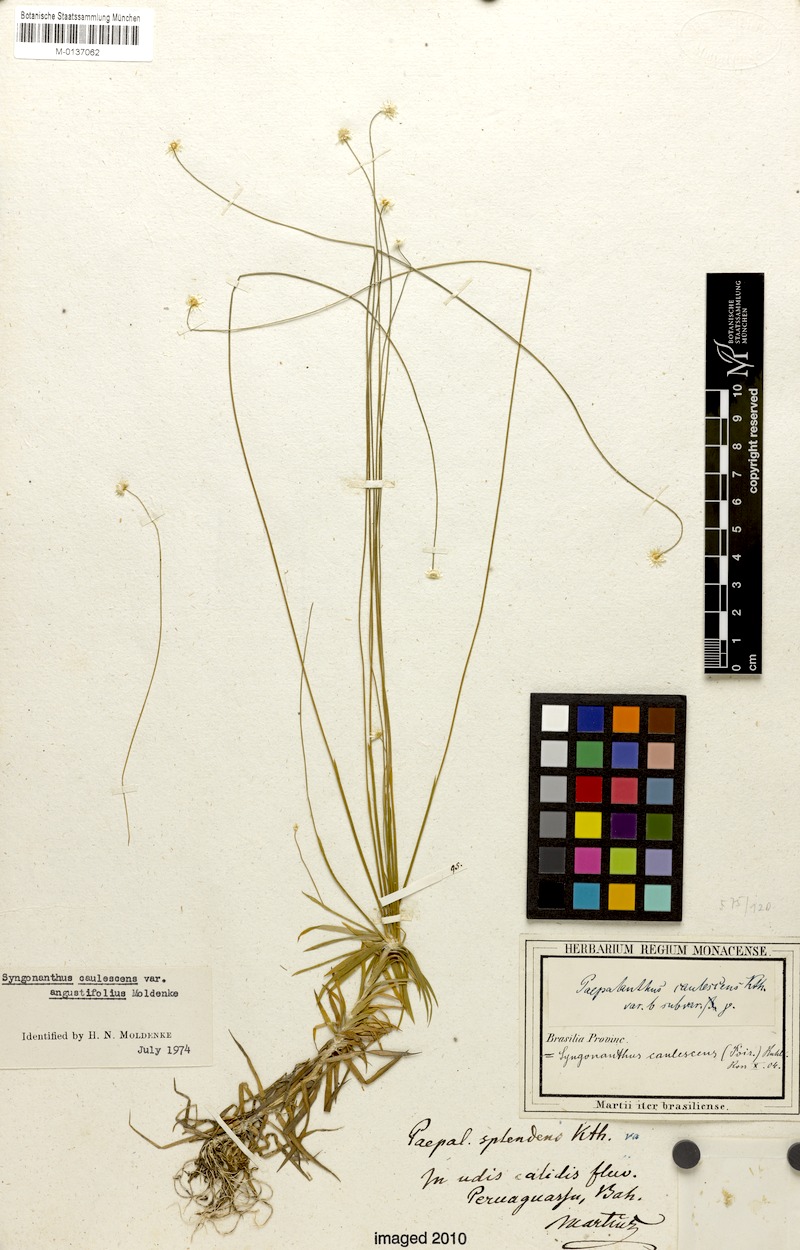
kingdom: Plantae
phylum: Tracheophyta
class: Liliopsida
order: Poales
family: Eriocaulaceae
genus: Syngonanthus
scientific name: Syngonanthus caulescens
